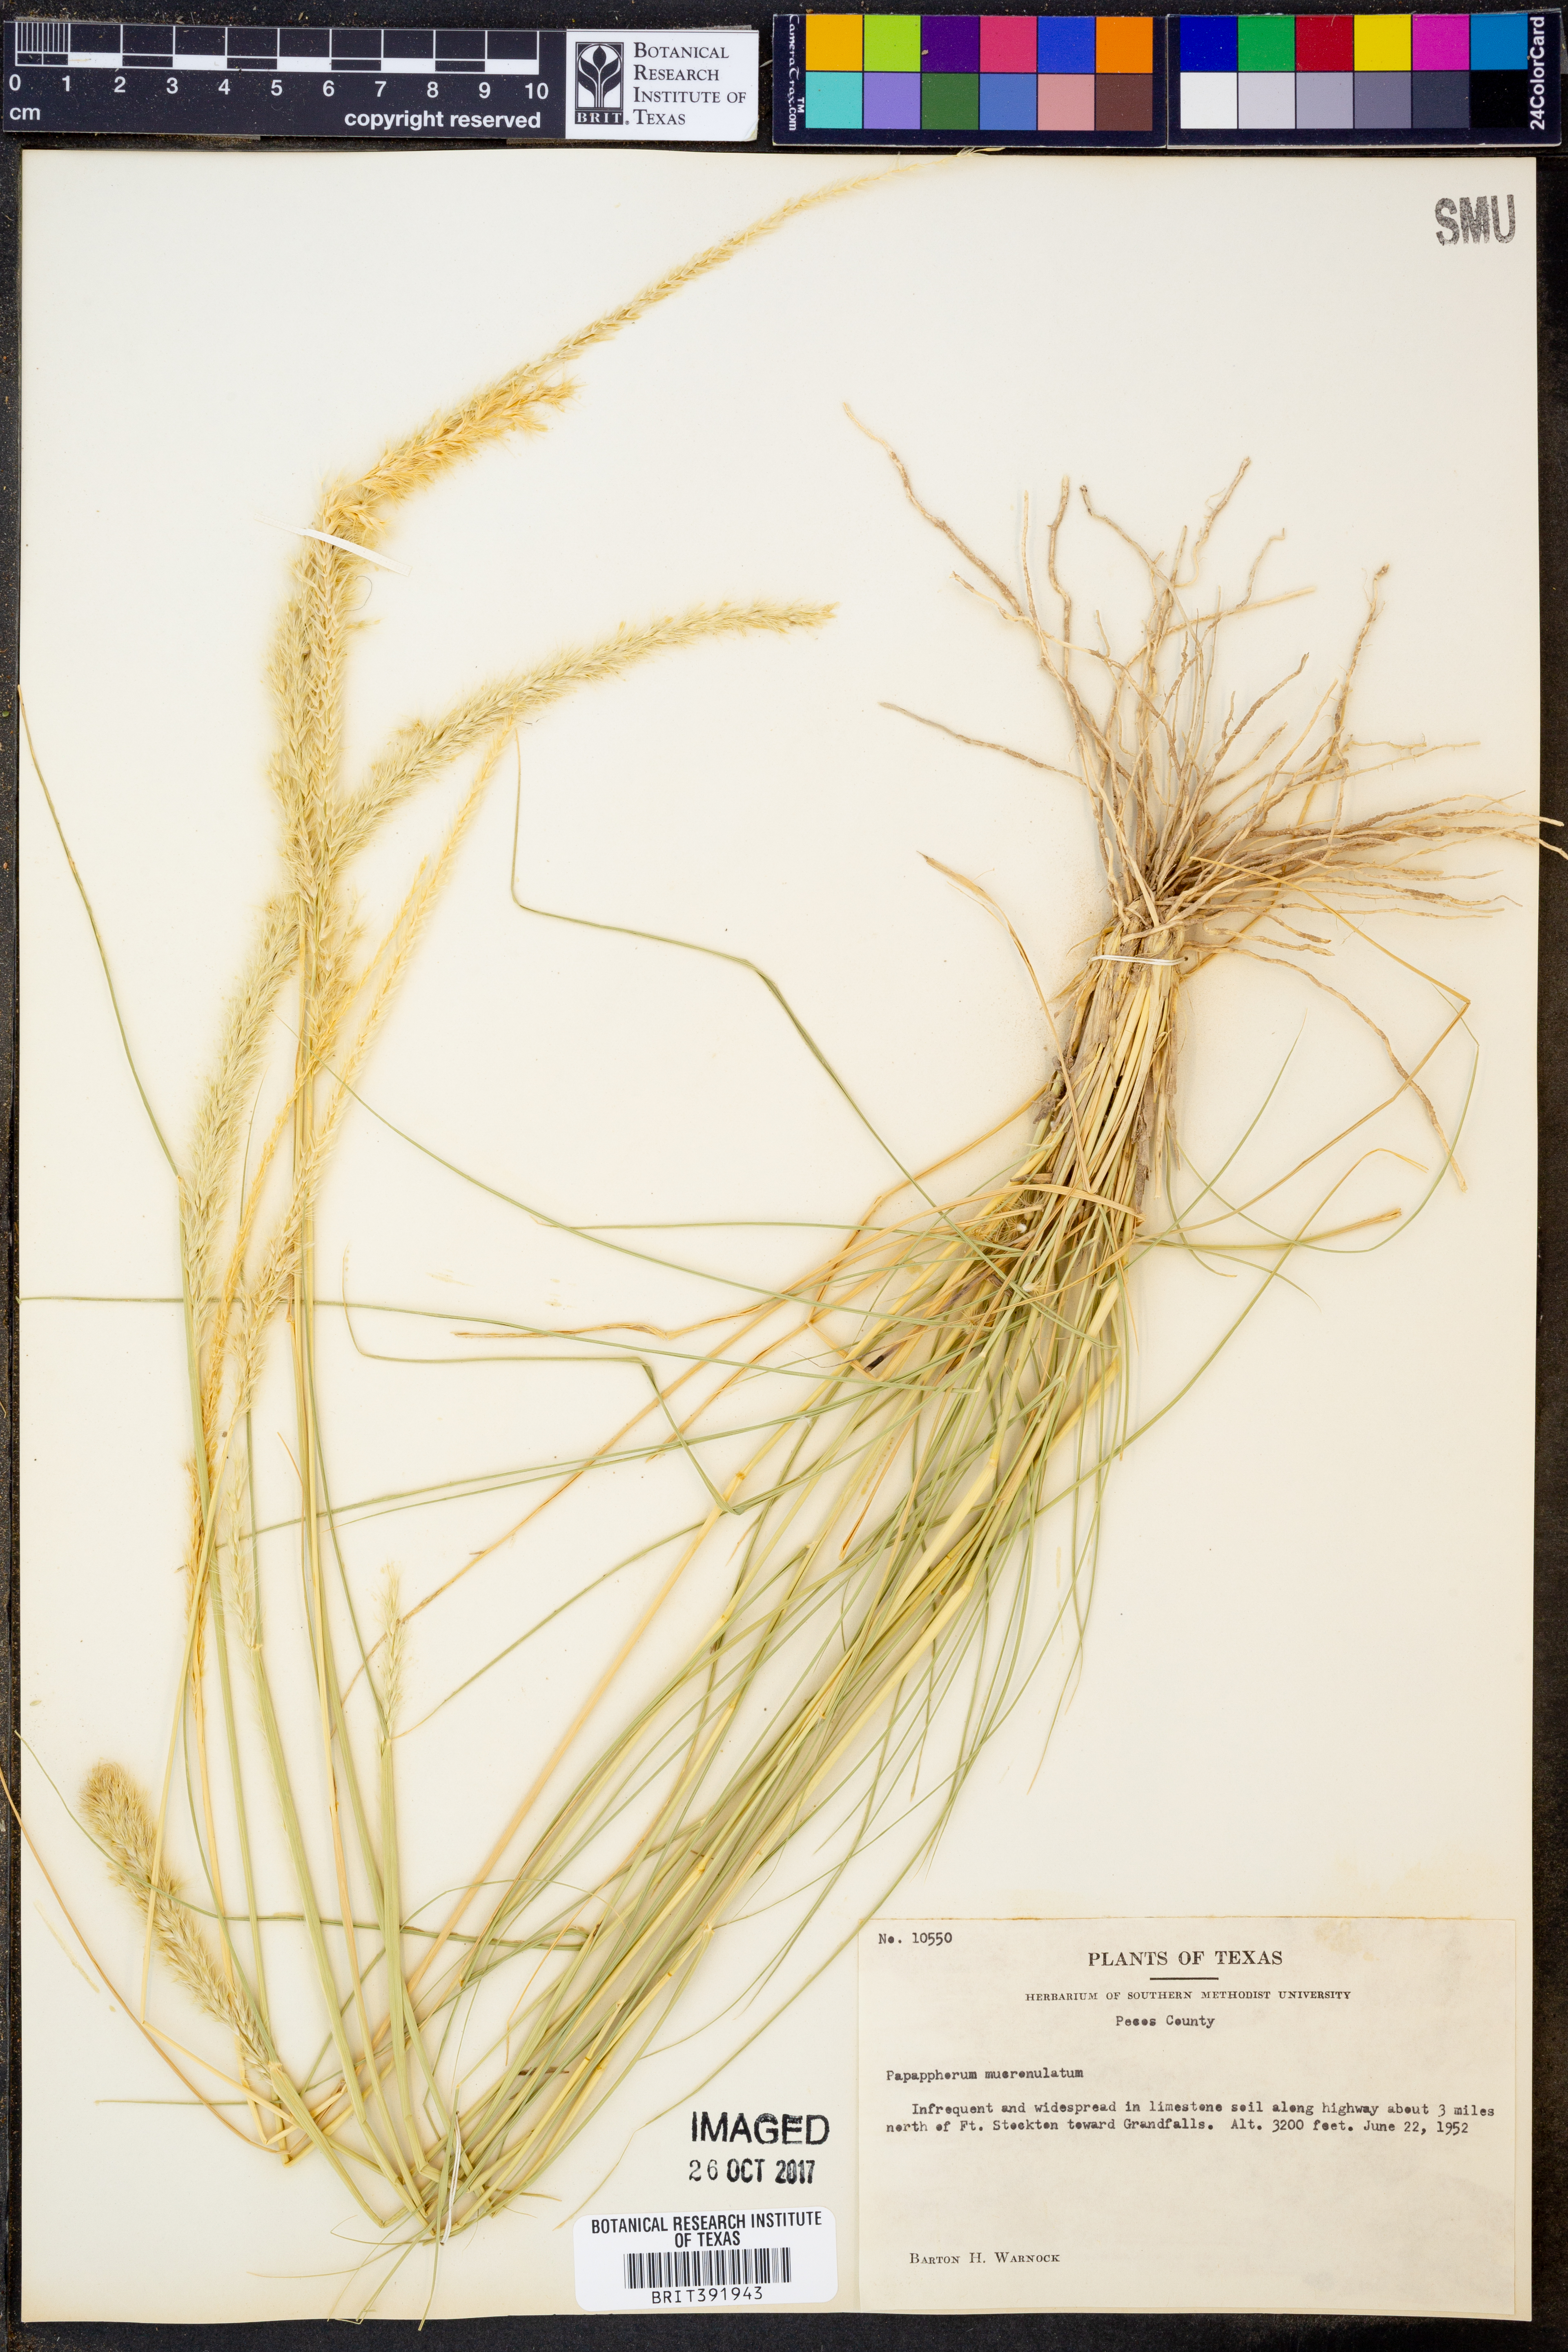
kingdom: Plantae
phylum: Tracheophyta
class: Liliopsida
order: Poales
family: Poaceae
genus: Pappophorum
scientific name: Pappophorum mucronulatum
